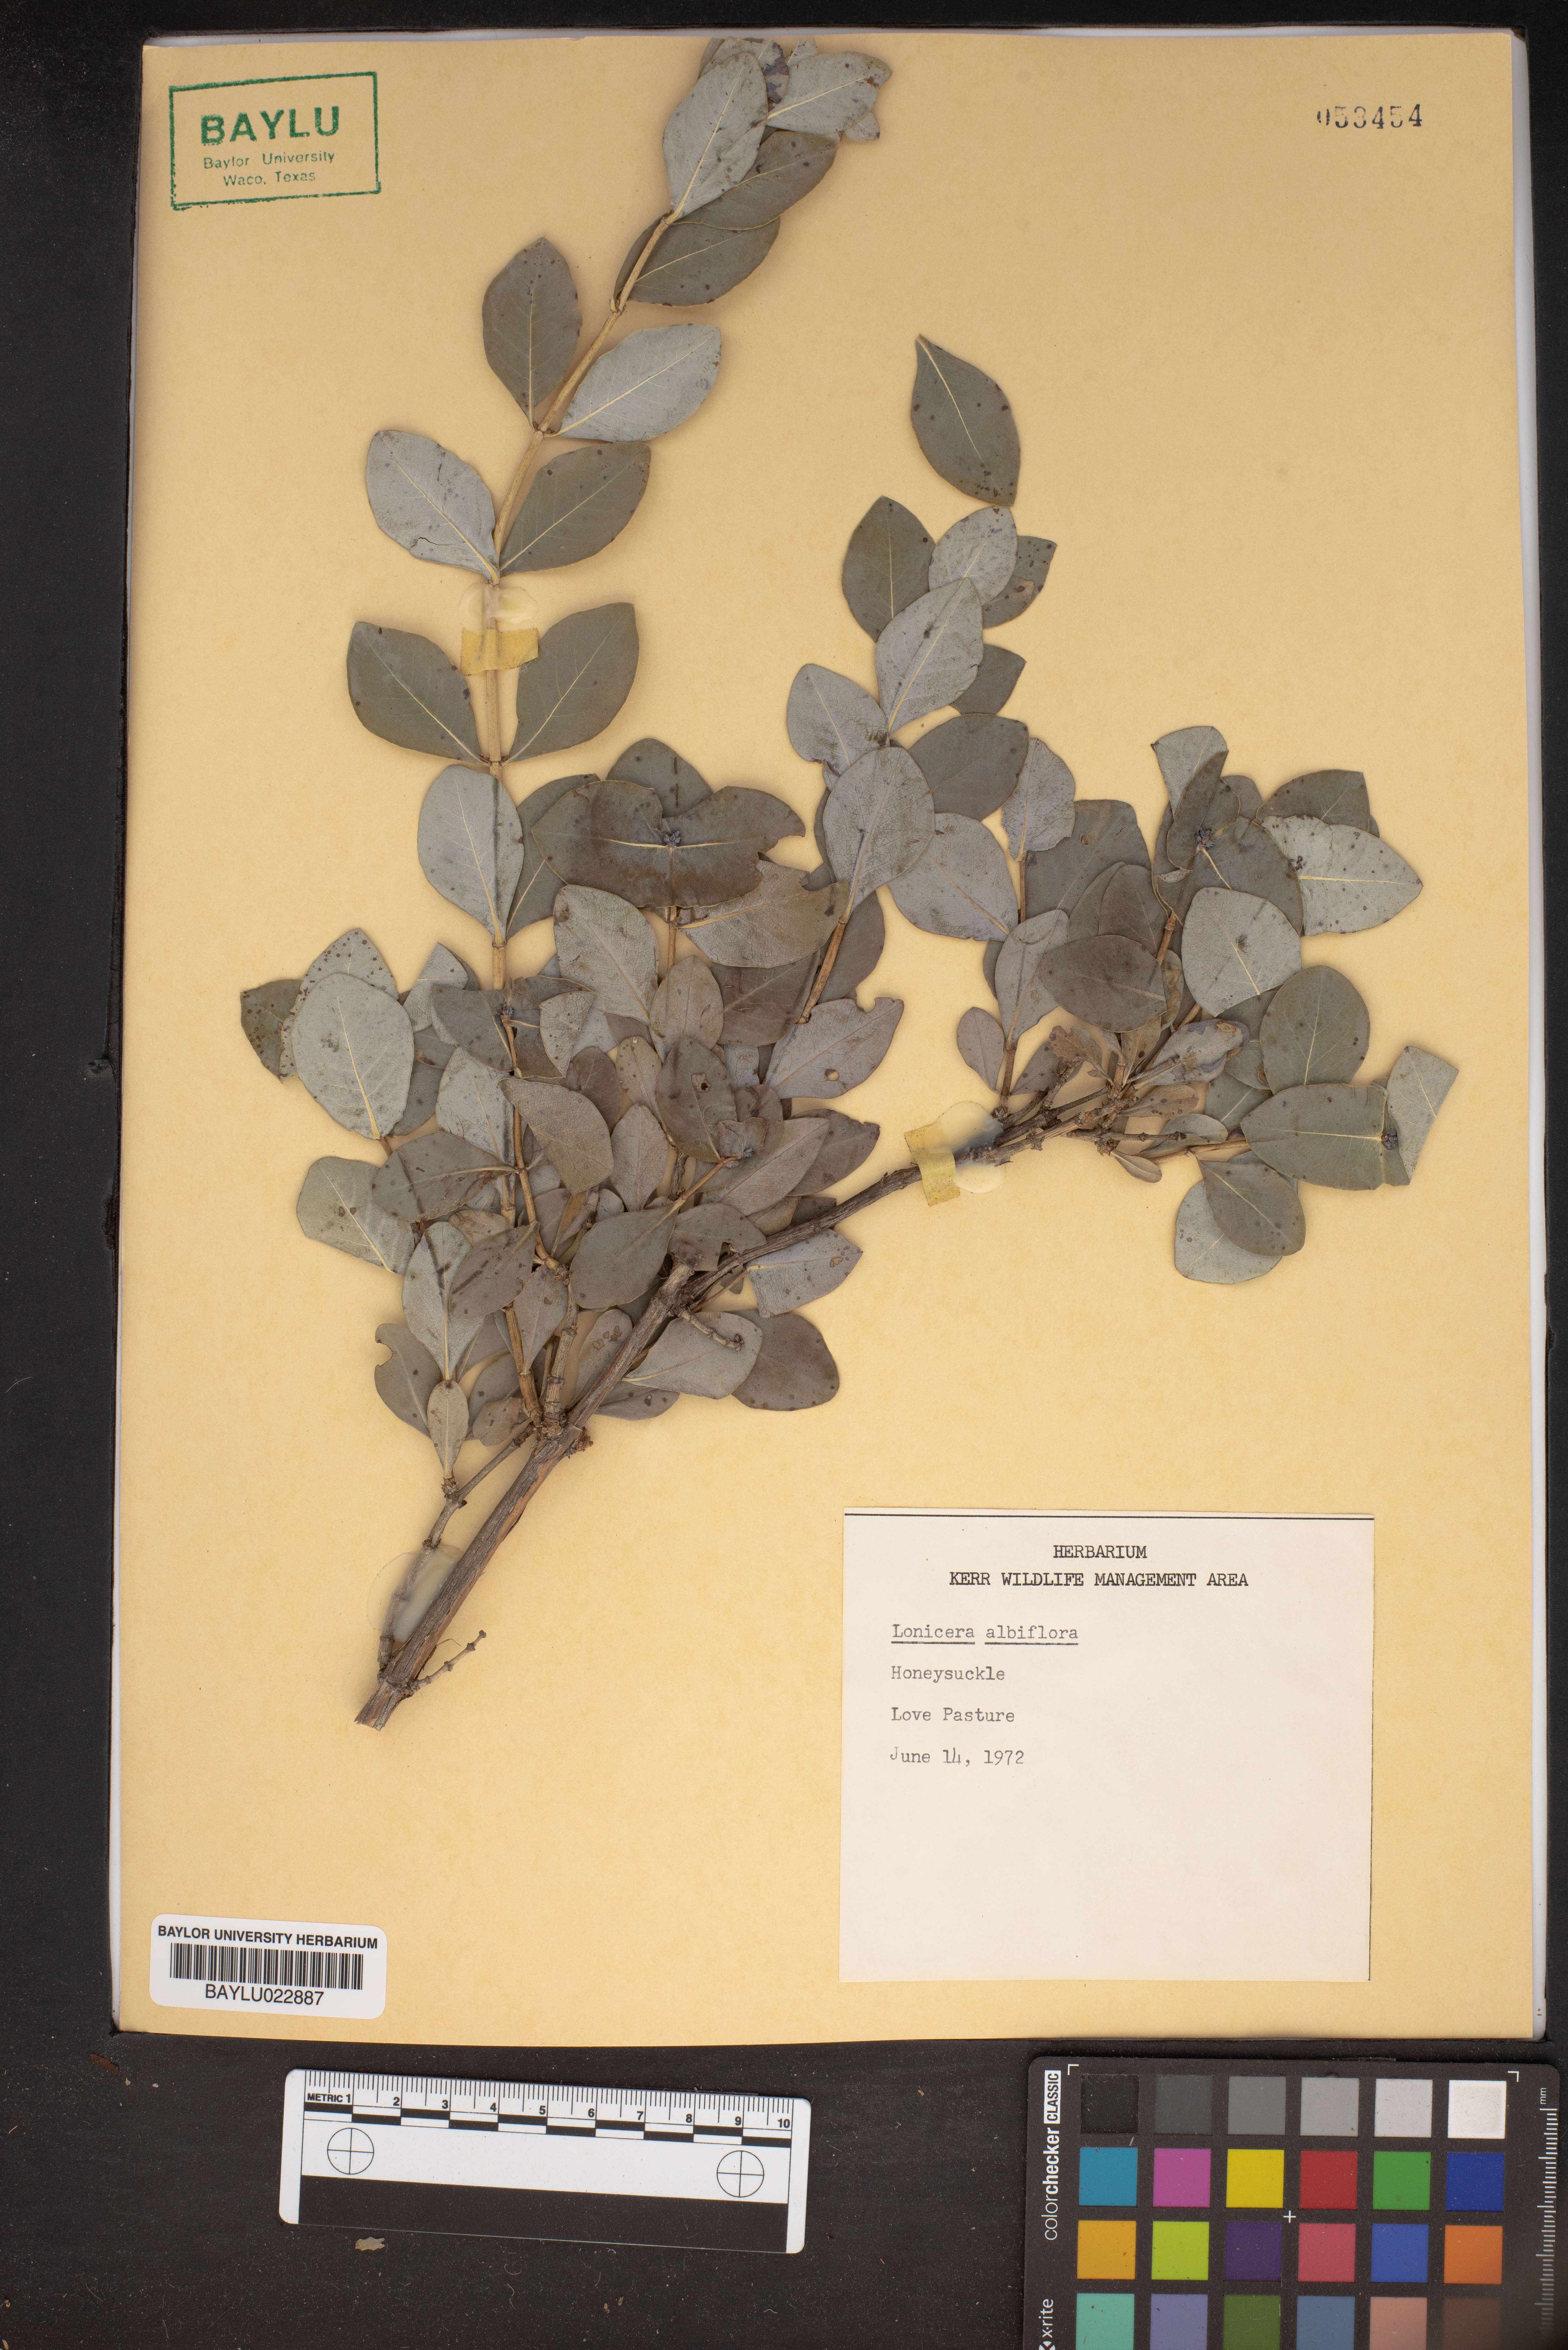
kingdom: Plantae
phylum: Tracheophyta
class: Magnoliopsida
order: Dipsacales
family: Caprifoliaceae
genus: Lonicera
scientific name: Lonicera albiflora
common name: White honeysuckle
